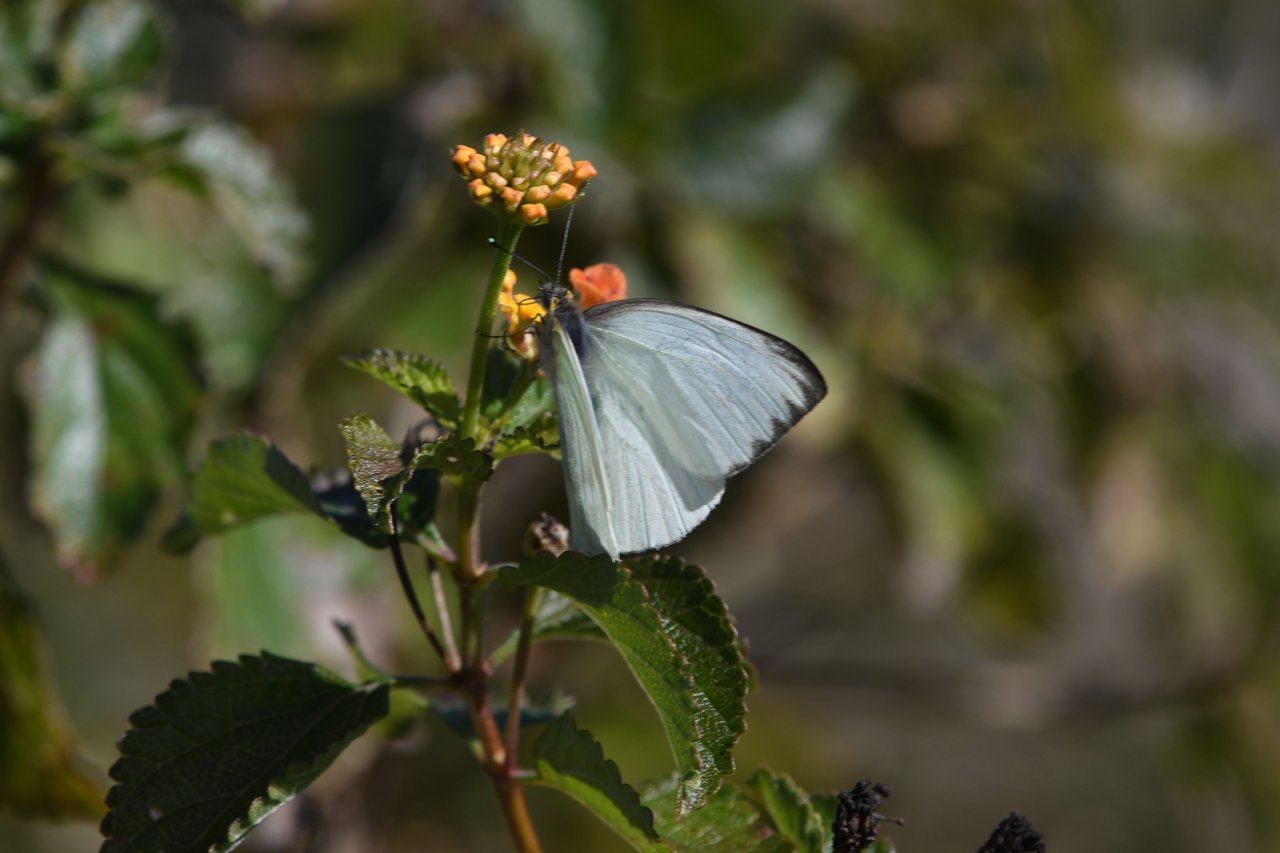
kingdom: Animalia
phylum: Arthropoda
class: Insecta
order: Lepidoptera
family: Pieridae
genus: Ascia
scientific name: Ascia monuste
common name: Great Southern White
